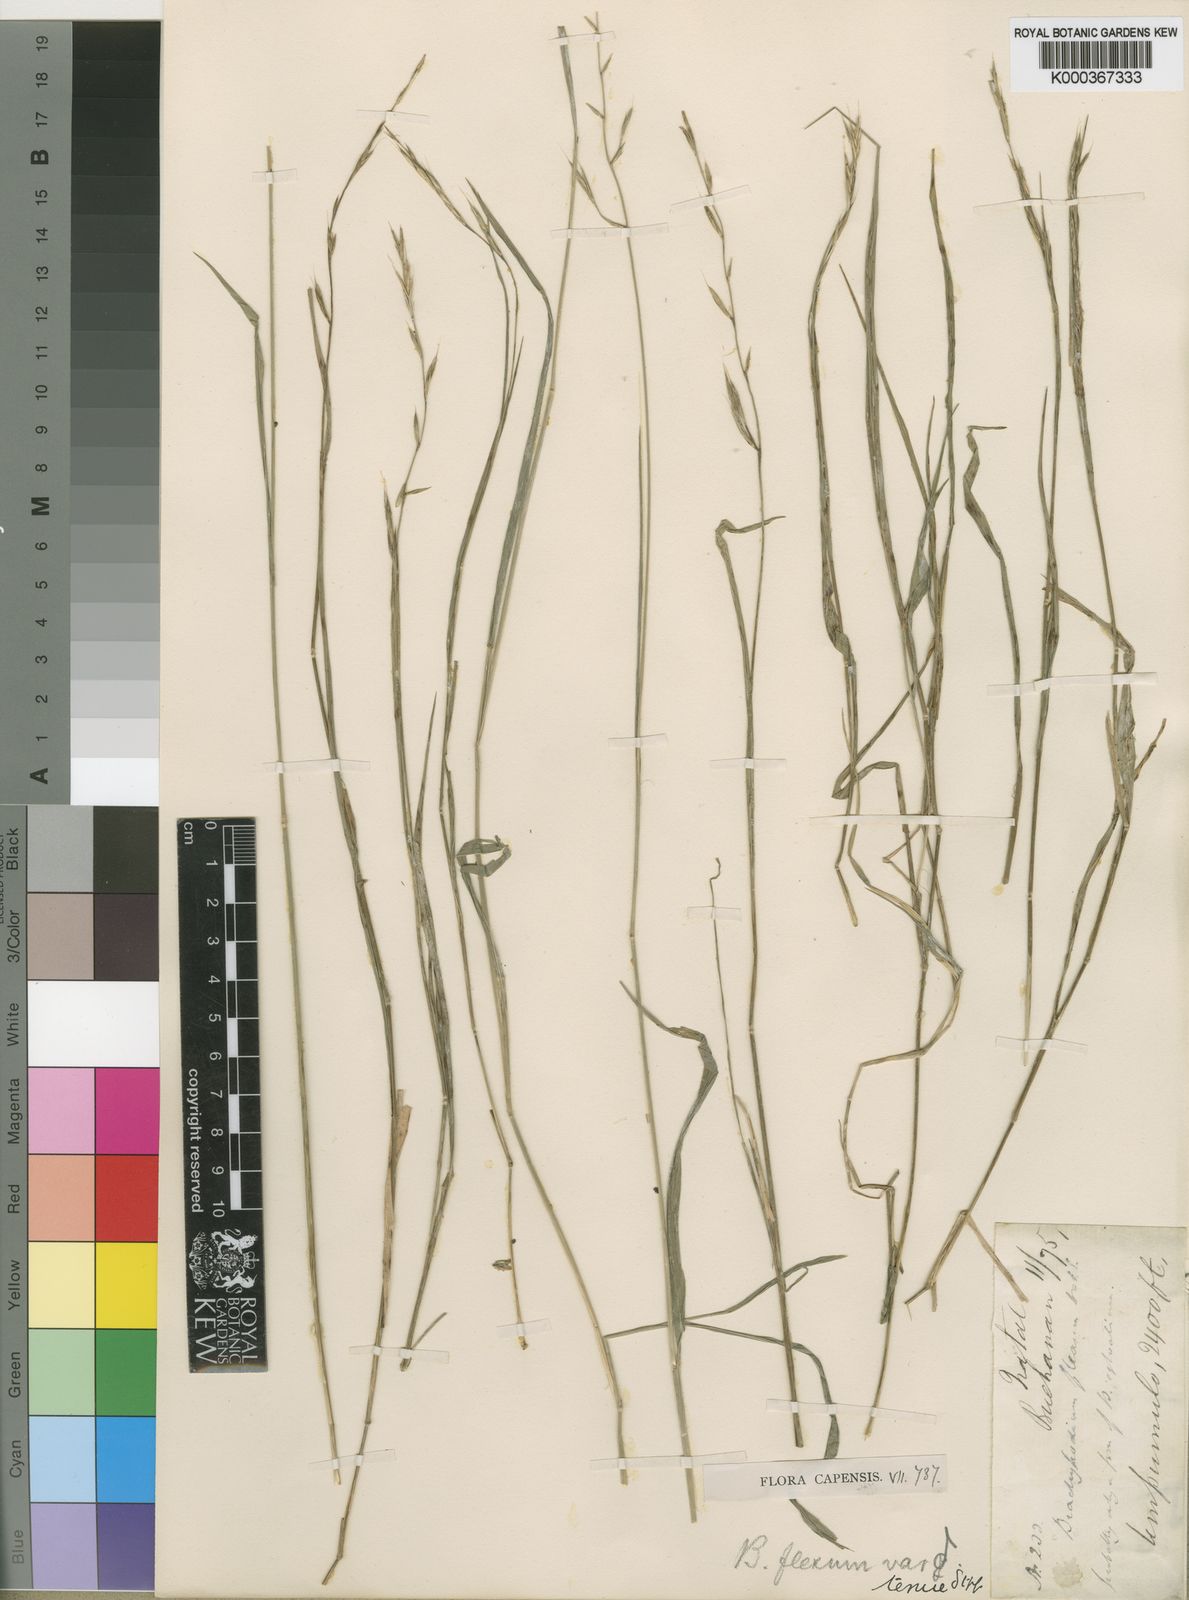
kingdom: Plantae
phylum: Tracheophyta
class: Liliopsida
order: Poales
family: Poaceae
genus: Brachypodium
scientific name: Brachypodium flexum
